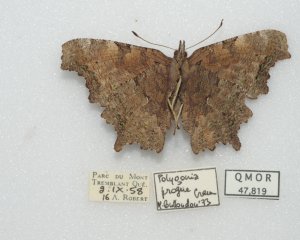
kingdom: Animalia
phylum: Arthropoda
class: Insecta
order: Lepidoptera
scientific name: Lepidoptera
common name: Butterflies
